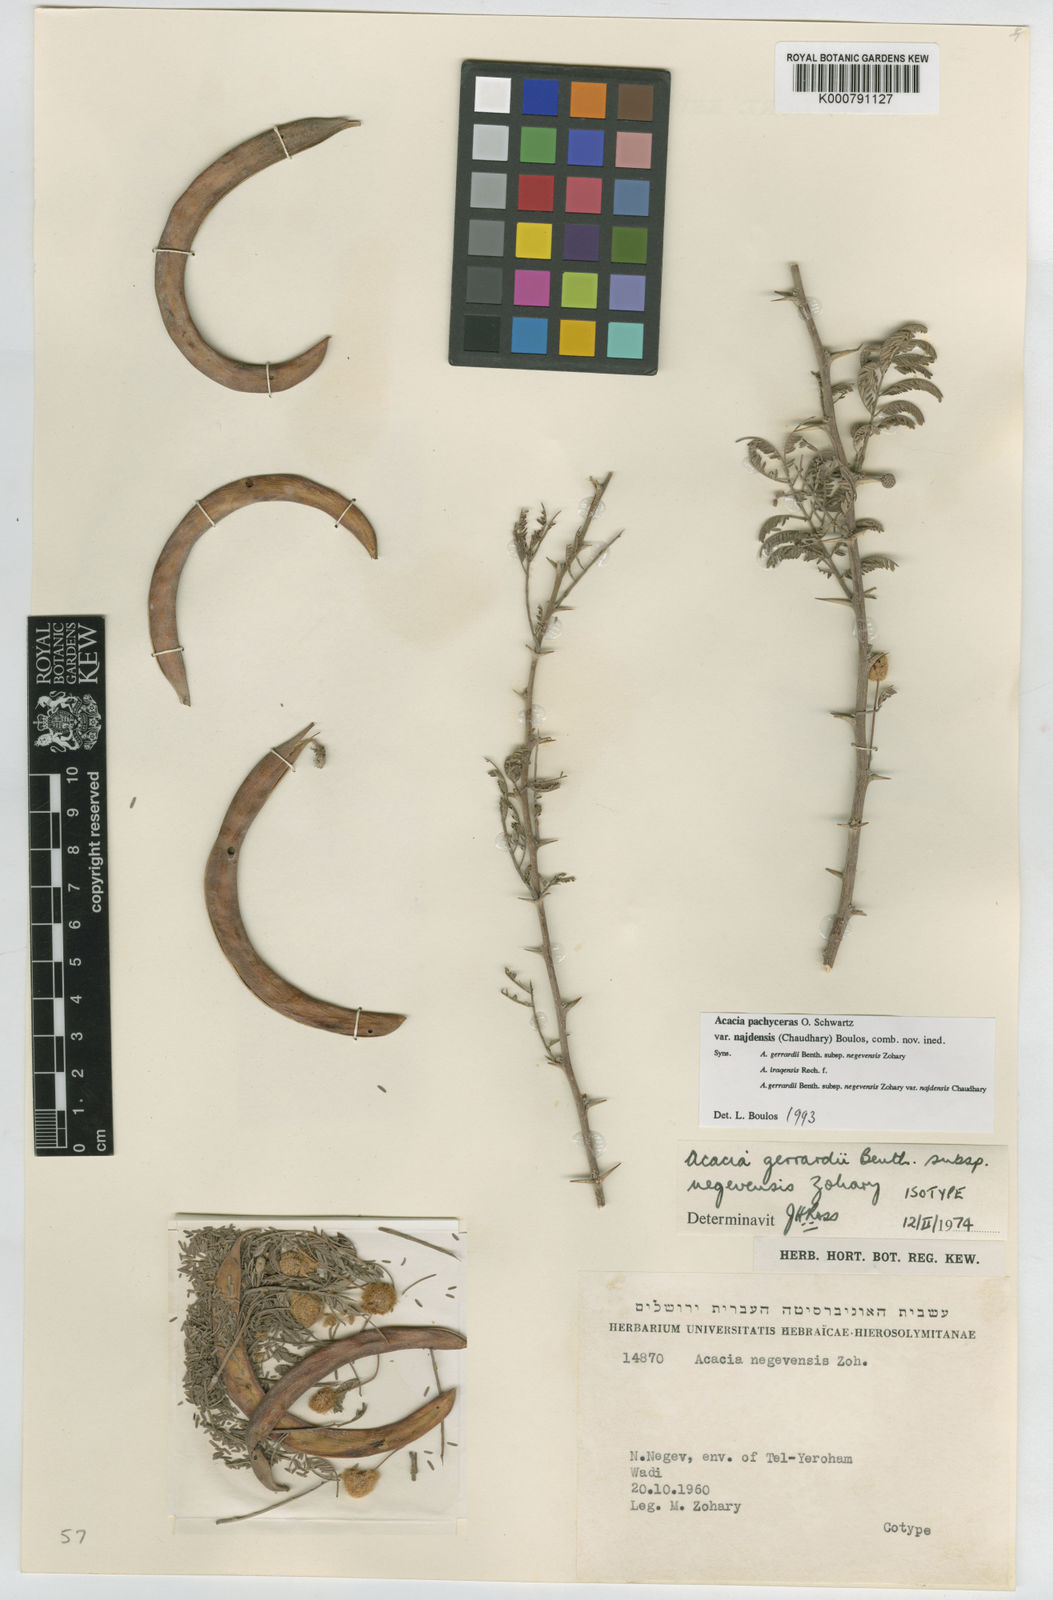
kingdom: Plantae
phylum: Tracheophyta
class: Magnoliopsida
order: Fabales
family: Fabaceae
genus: Acacia
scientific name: Acacia
